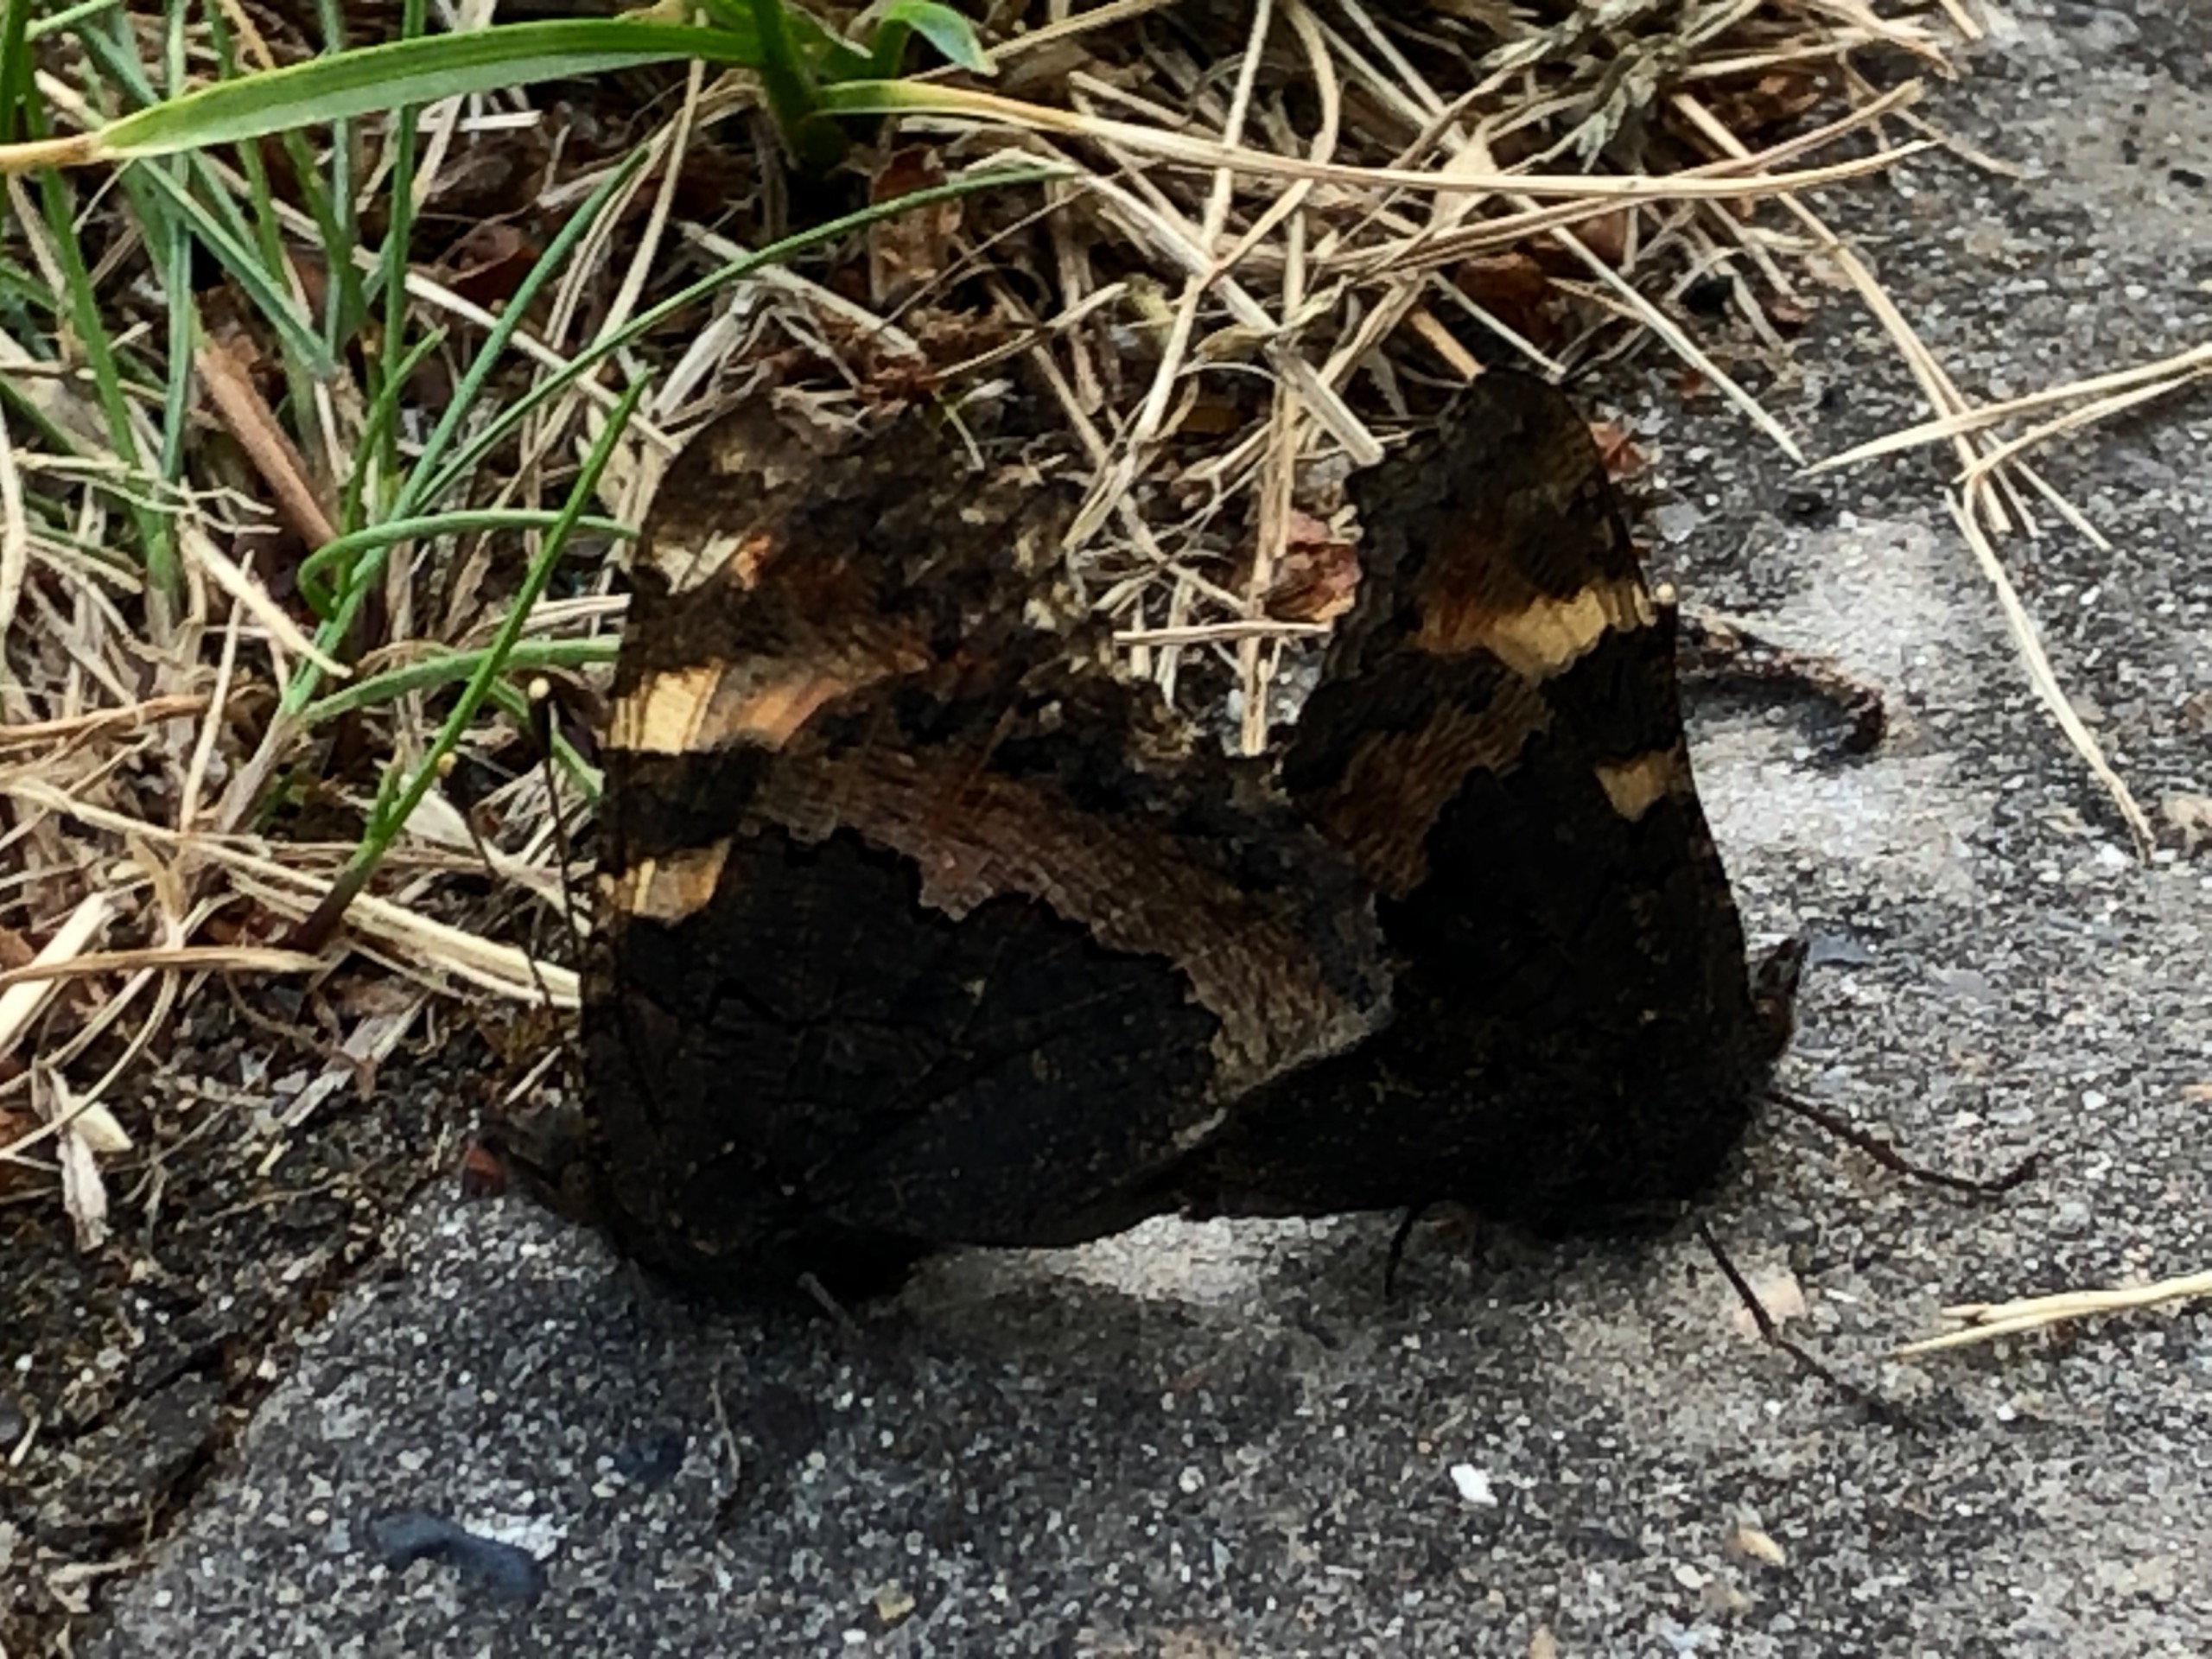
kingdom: Animalia
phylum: Arthropoda
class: Insecta
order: Lepidoptera
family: Nymphalidae
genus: Aglais
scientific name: Aglais urticae
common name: Nældens takvinge
